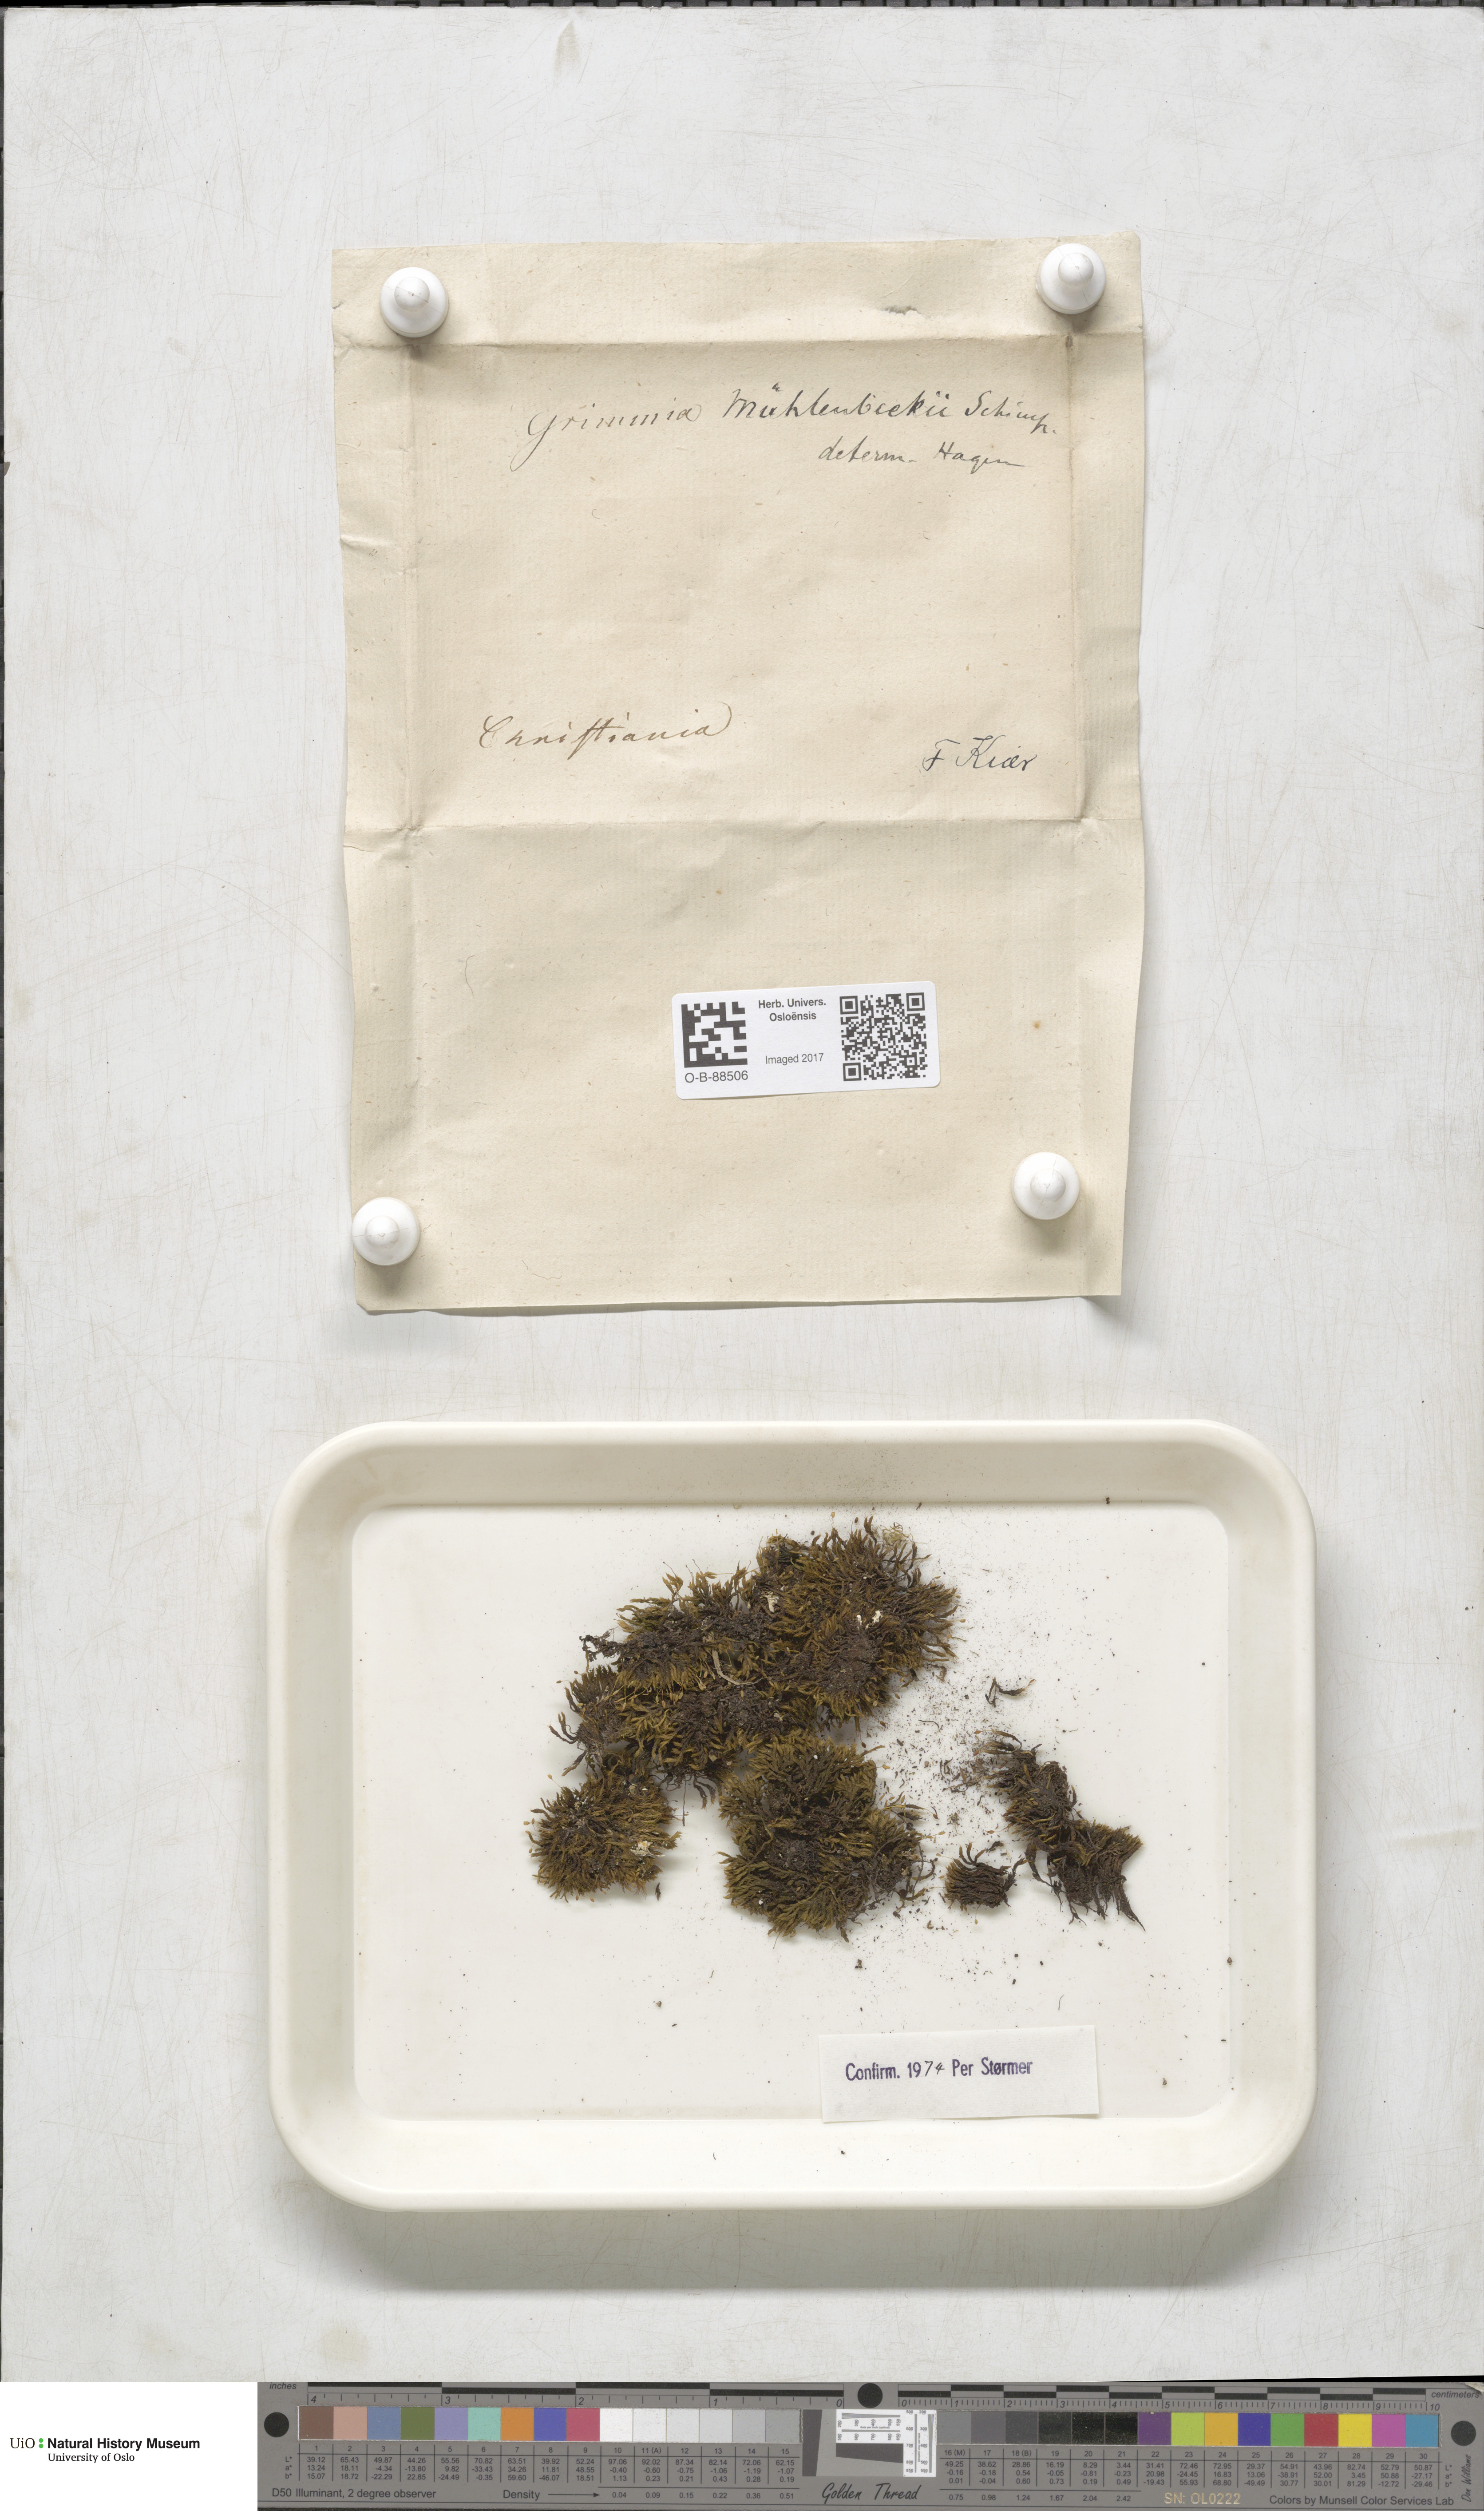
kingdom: Plantae
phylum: Bryophyta
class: Bryopsida
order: Grimmiales
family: Grimmiaceae
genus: Grimmia
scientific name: Grimmia trichophylla
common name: Hair-pointed grimmia
